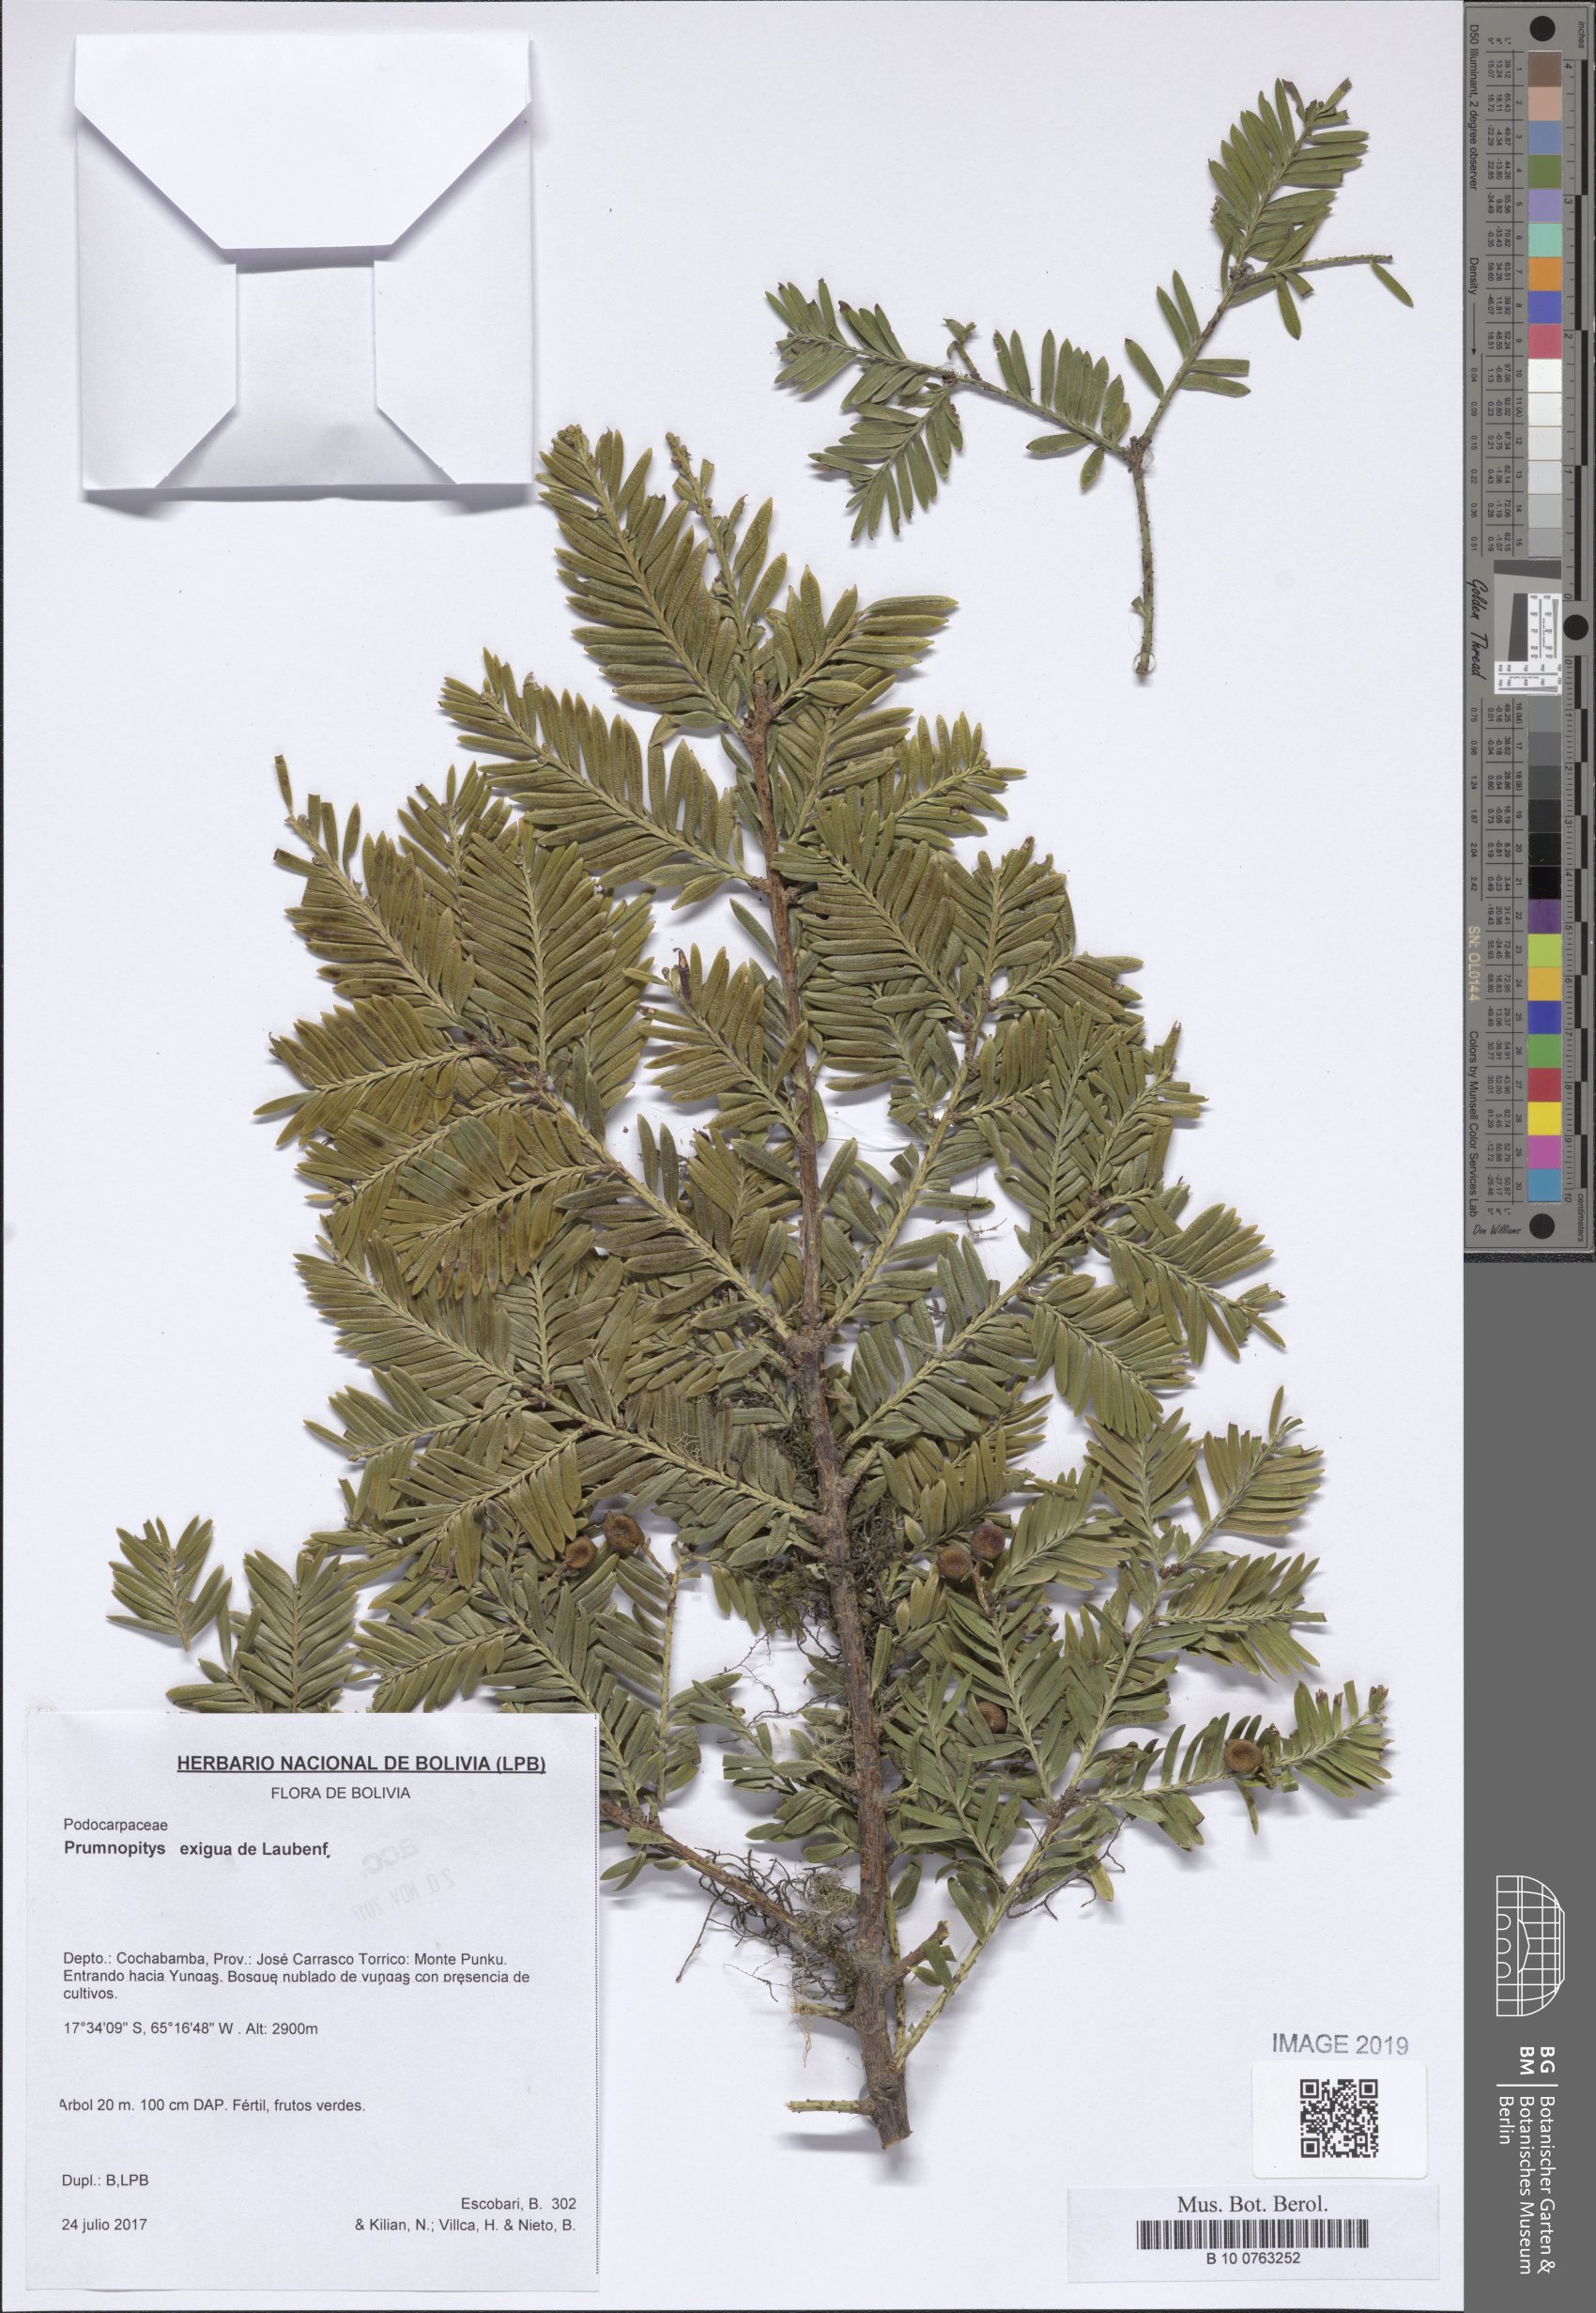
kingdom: Plantae
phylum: Tracheophyta
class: Pinopsida
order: Pinales
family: Podocarpaceae
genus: Pectinopitys
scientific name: Pectinopitys exigua
